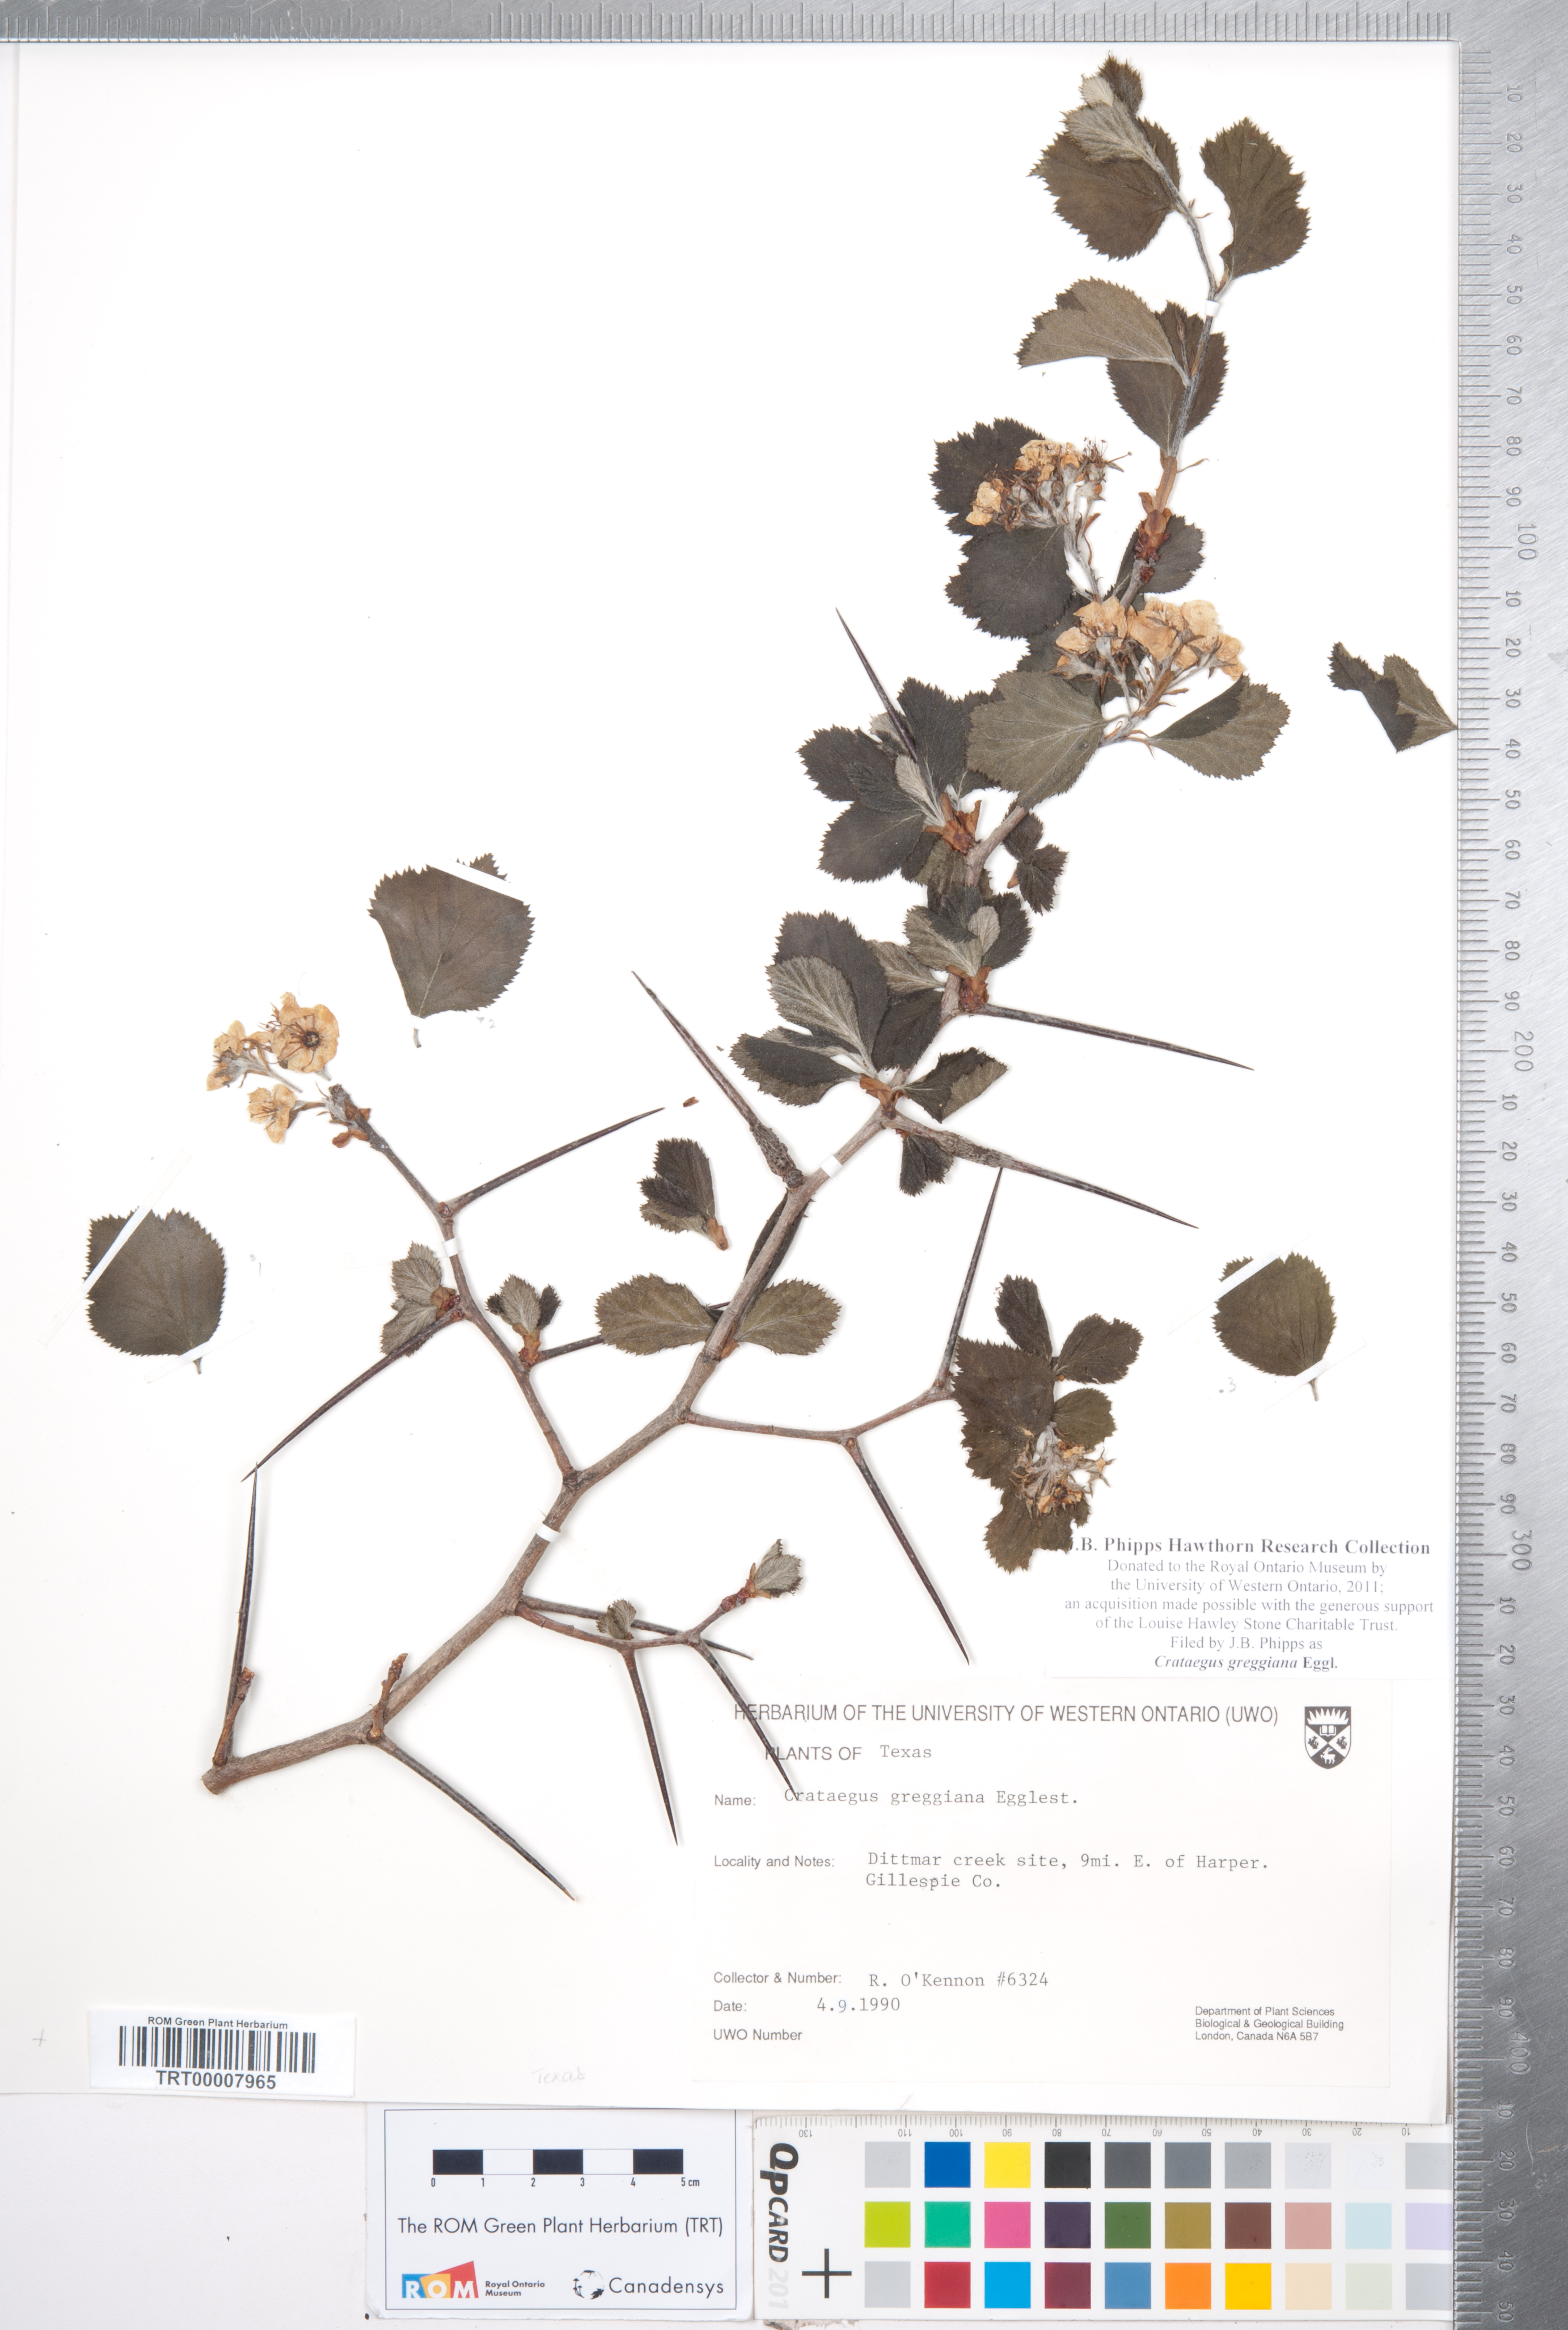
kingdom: Plantae
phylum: Tracheophyta
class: Magnoliopsida
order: Rosales
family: Rosaceae
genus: Crataegus
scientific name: Crataegus greggiana
